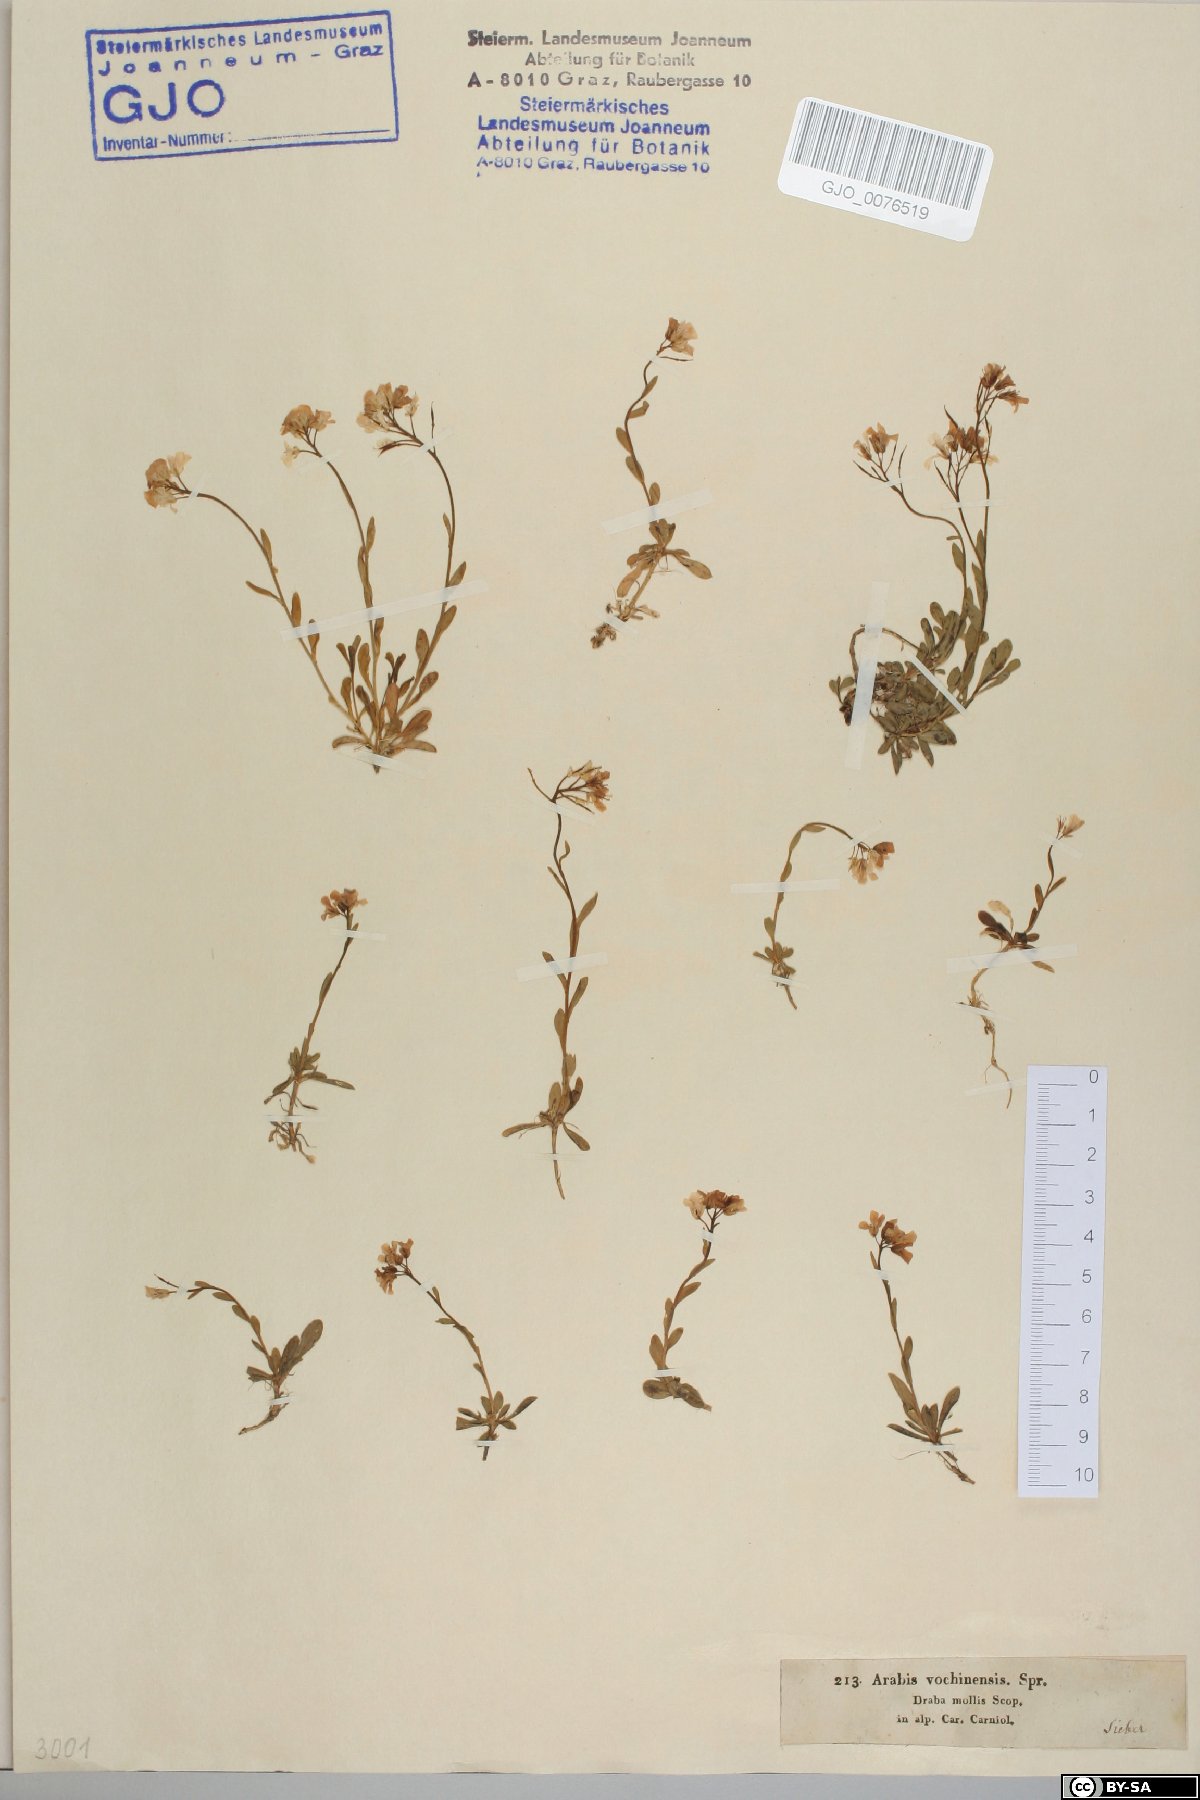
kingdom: Plantae
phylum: Tracheophyta
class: Magnoliopsida
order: Brassicales
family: Brassicaceae
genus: Arabis
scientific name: Arabis vochinensis
